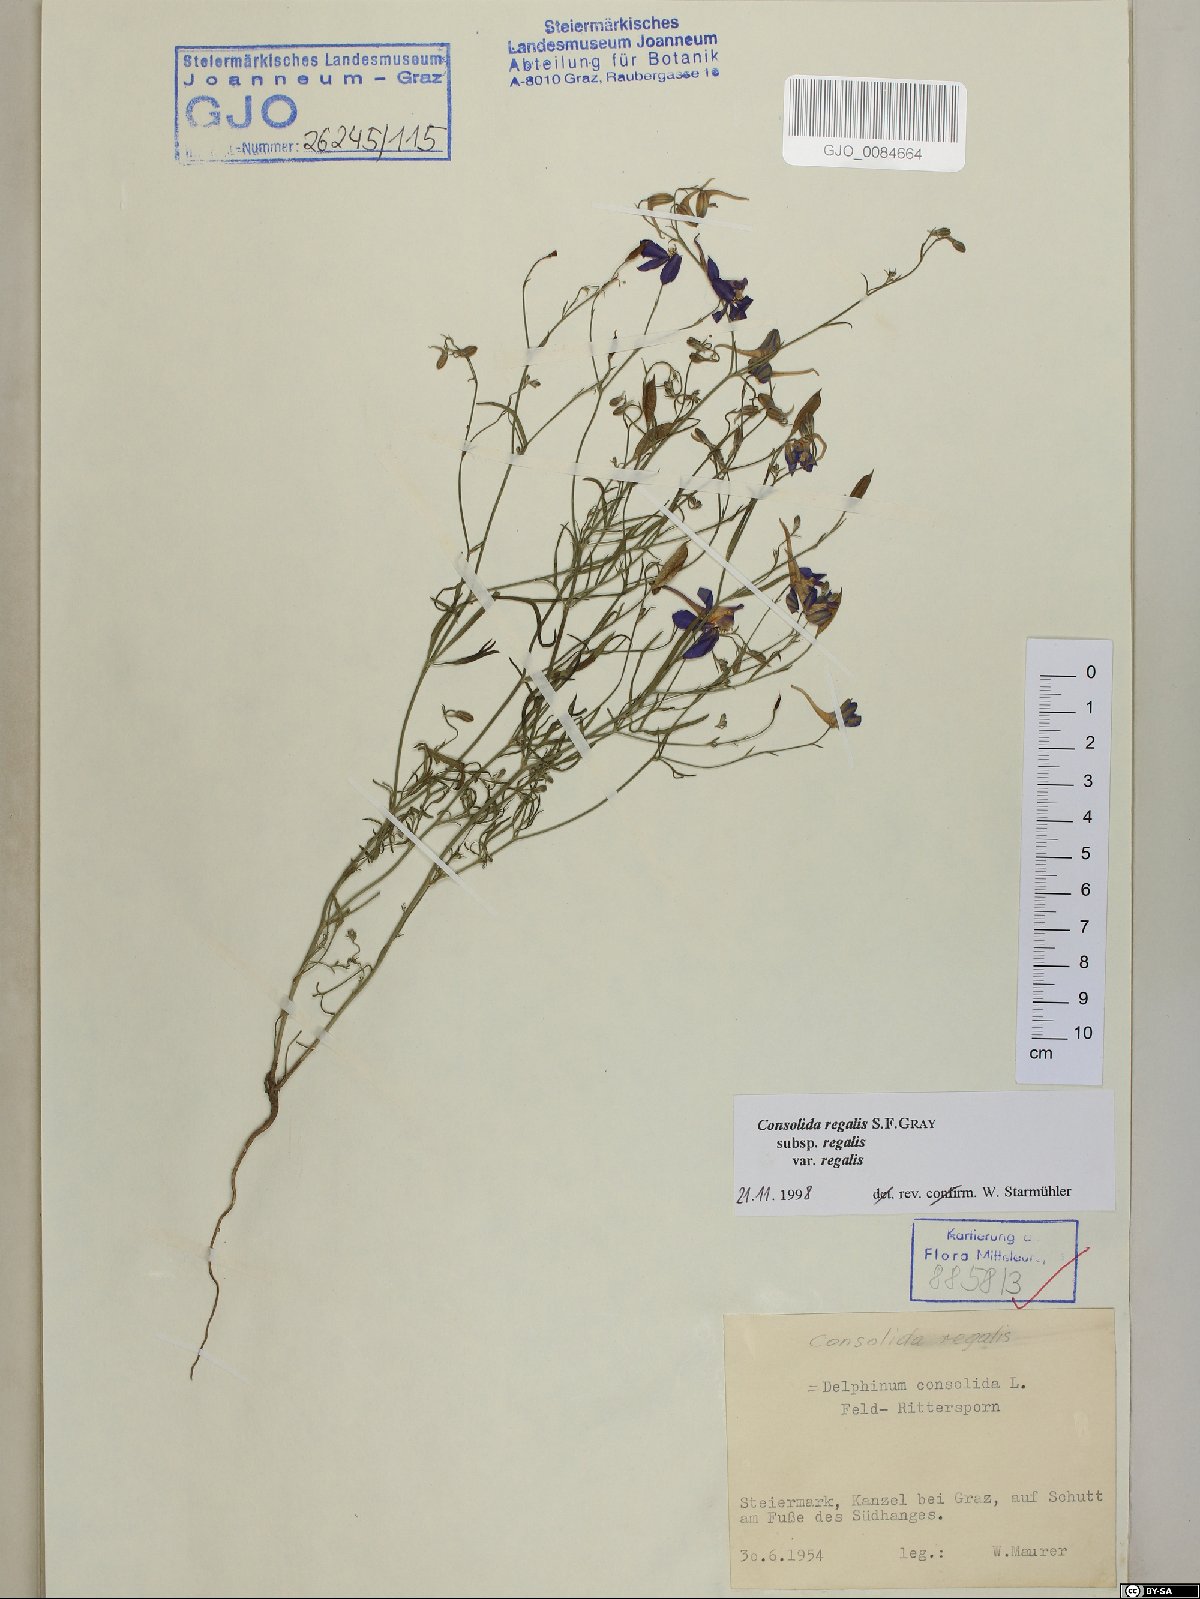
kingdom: Plantae
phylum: Tracheophyta
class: Magnoliopsida
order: Ranunculales
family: Ranunculaceae
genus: Delphinium
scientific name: Delphinium consolida
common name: Branching larkspur
